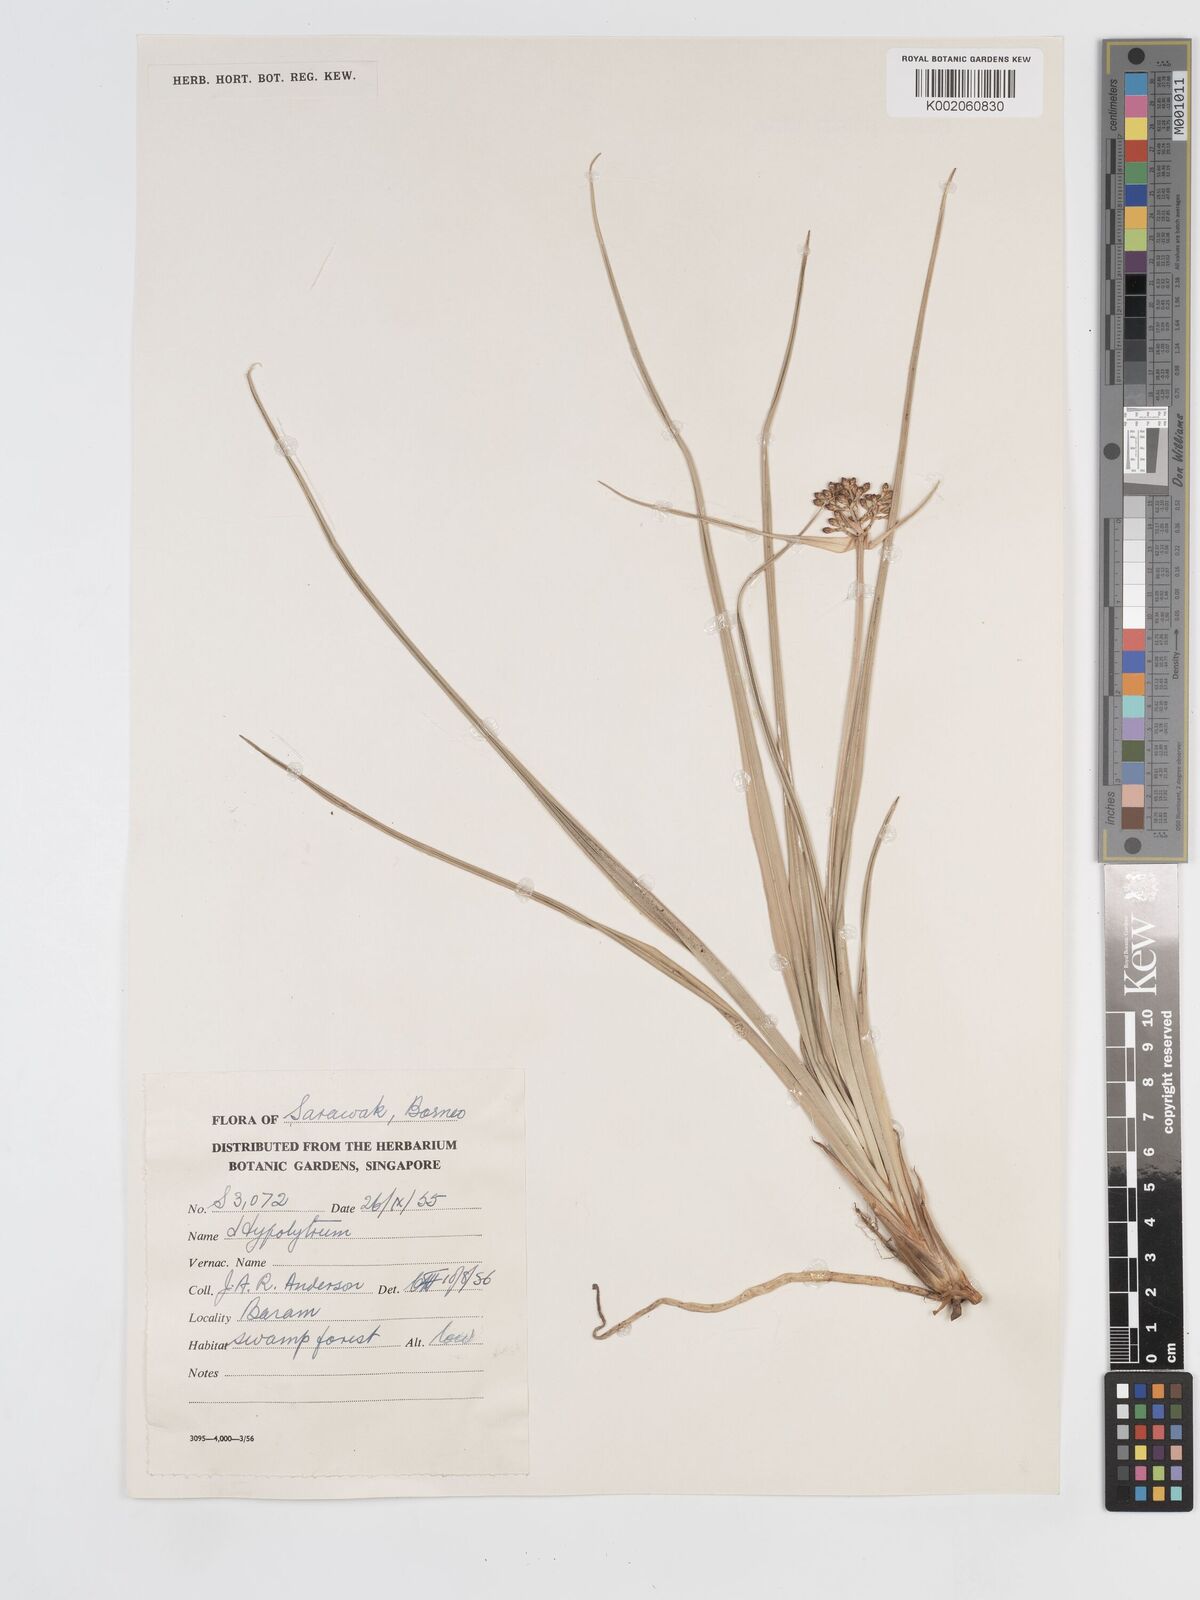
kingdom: Plantae
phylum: Tracheophyta
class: Liliopsida
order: Poales
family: Cyperaceae
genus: Hypolytrum
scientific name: Hypolytrum
